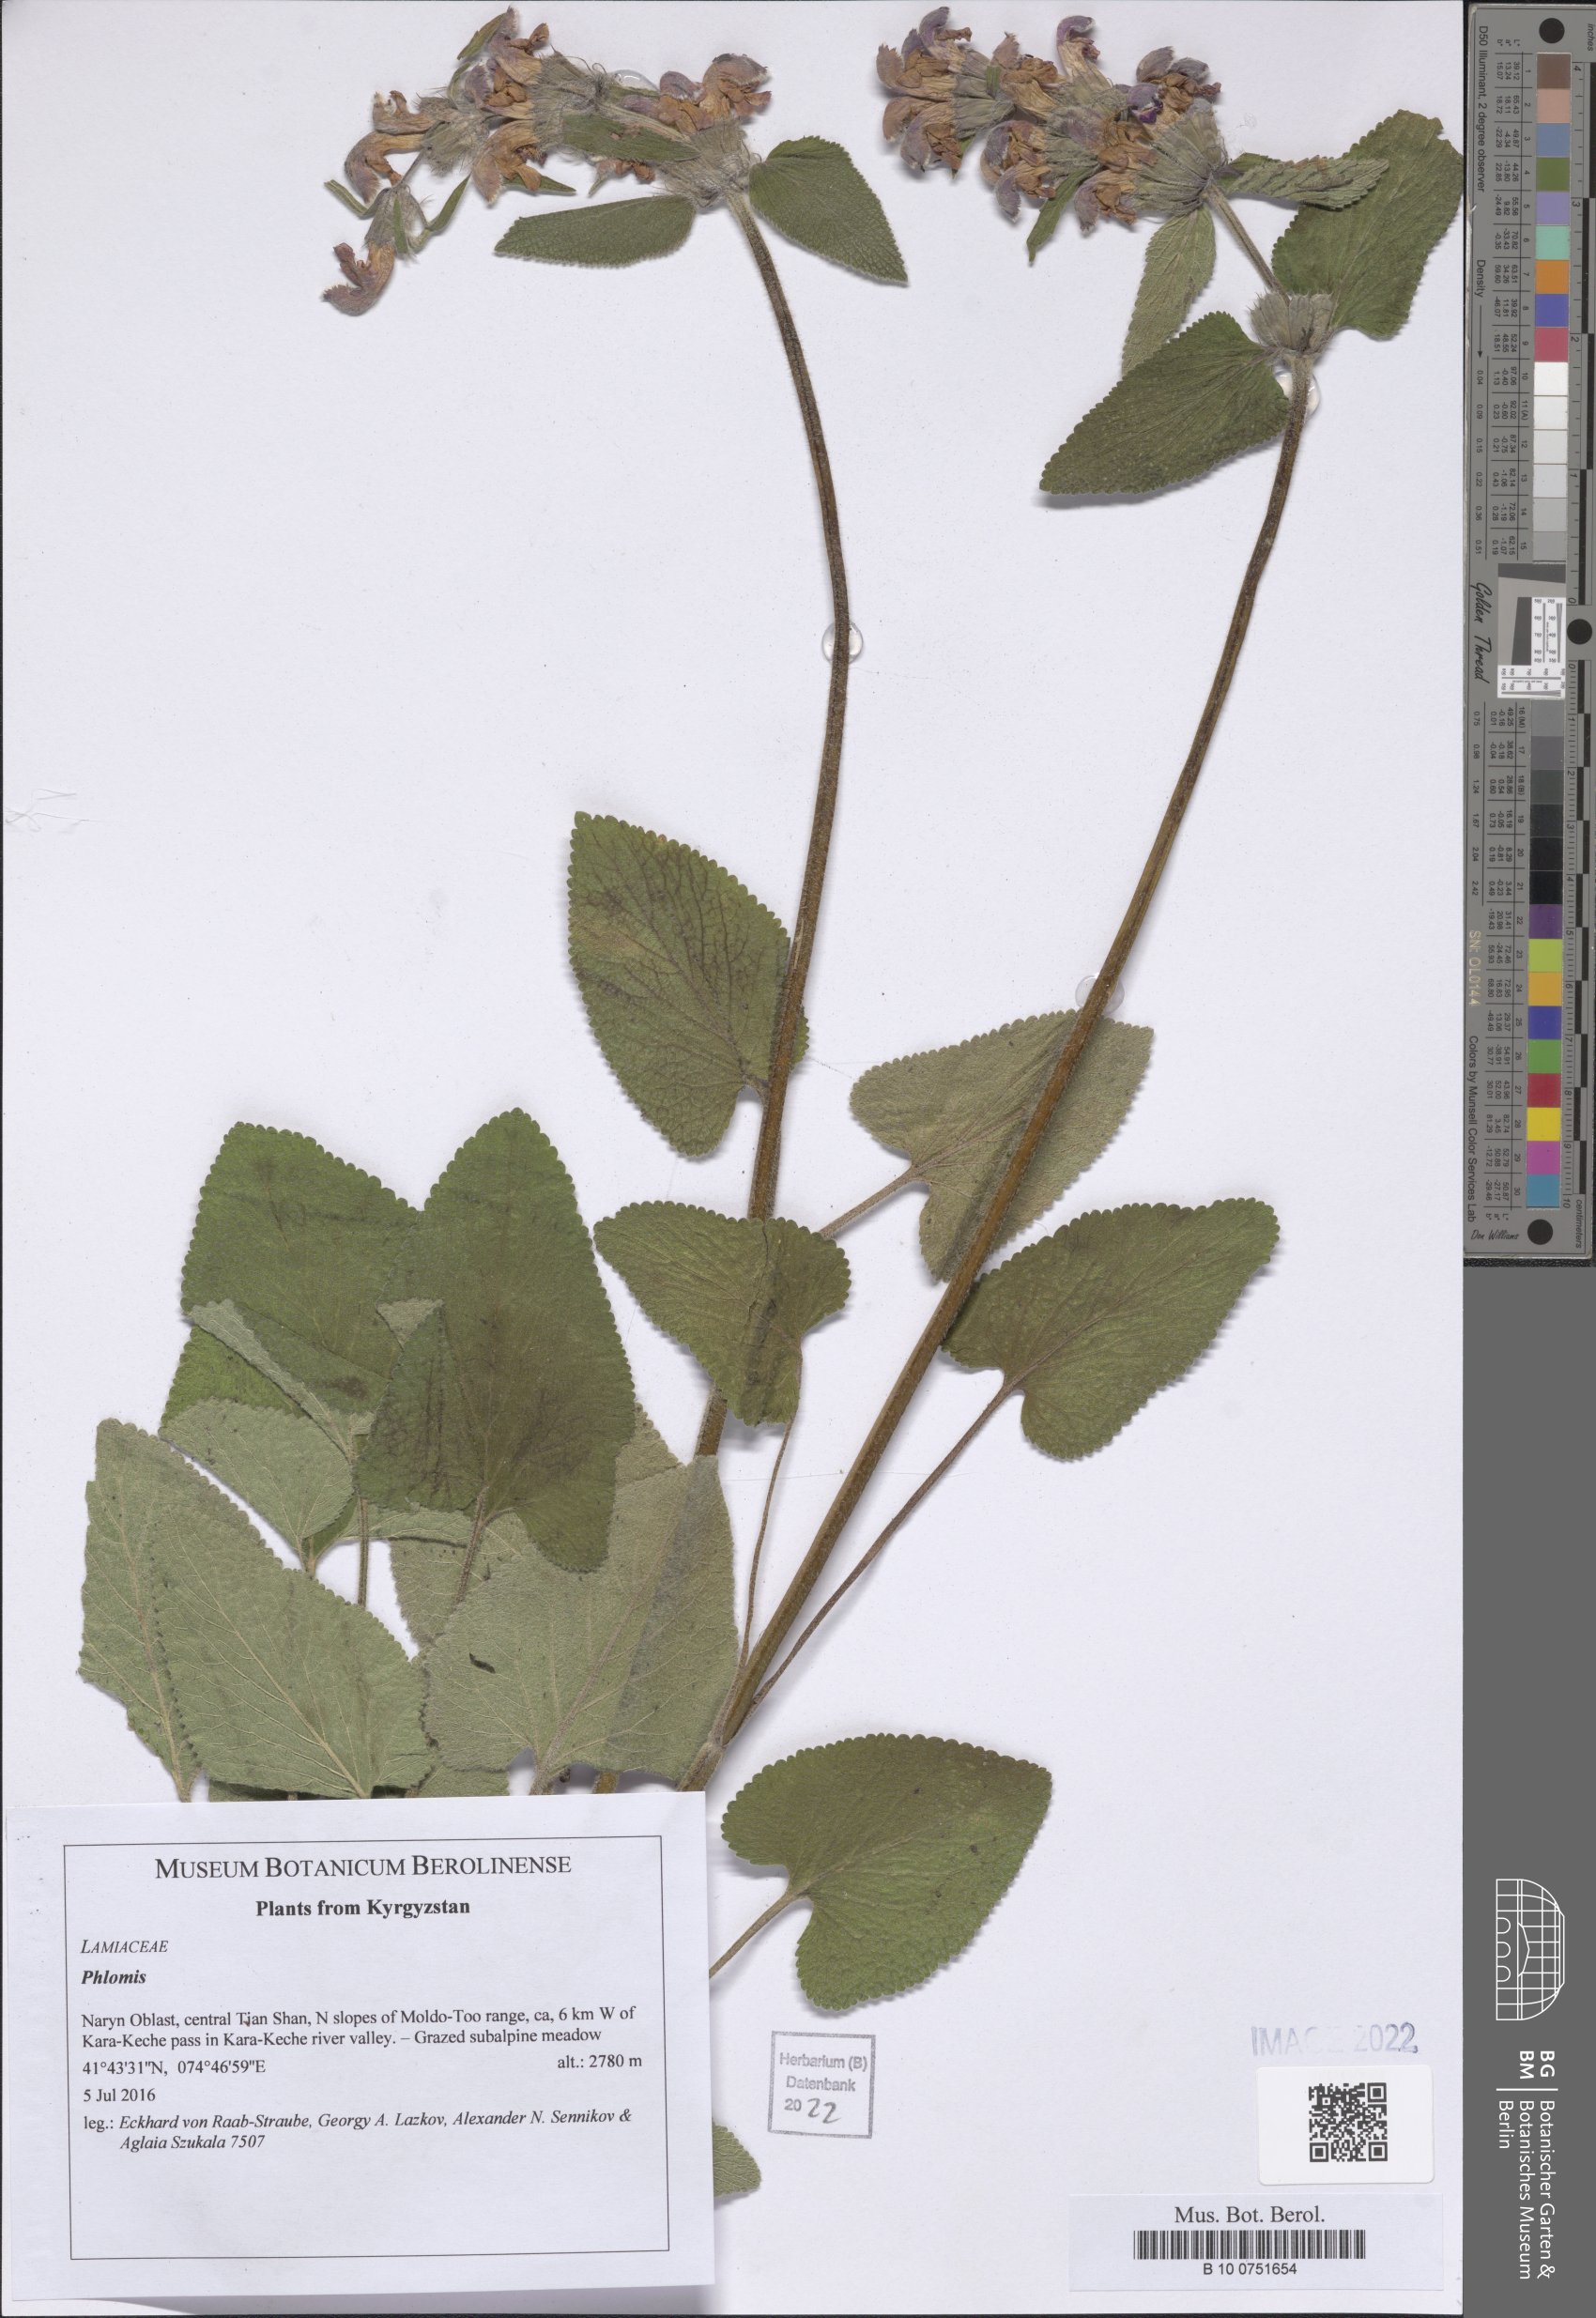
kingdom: Plantae
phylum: Tracheophyta
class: Magnoliopsida
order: Lamiales
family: Lamiaceae
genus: Phlomis
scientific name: Phlomis
